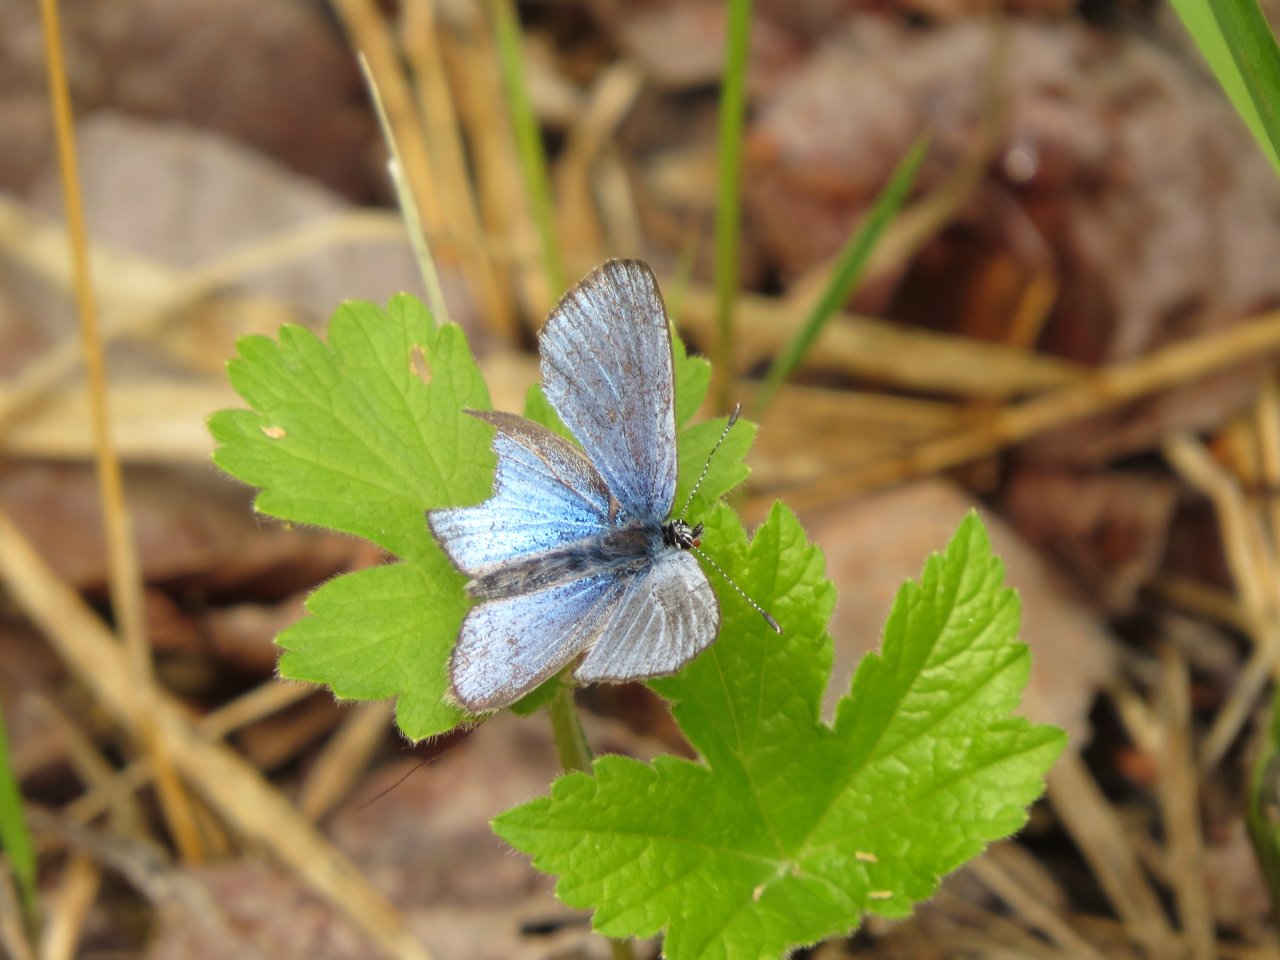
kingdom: Animalia
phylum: Arthropoda
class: Insecta
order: Lepidoptera
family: Lycaenidae
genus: Glaucopsyche
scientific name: Glaucopsyche lygdamus
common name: Silvery Blue
